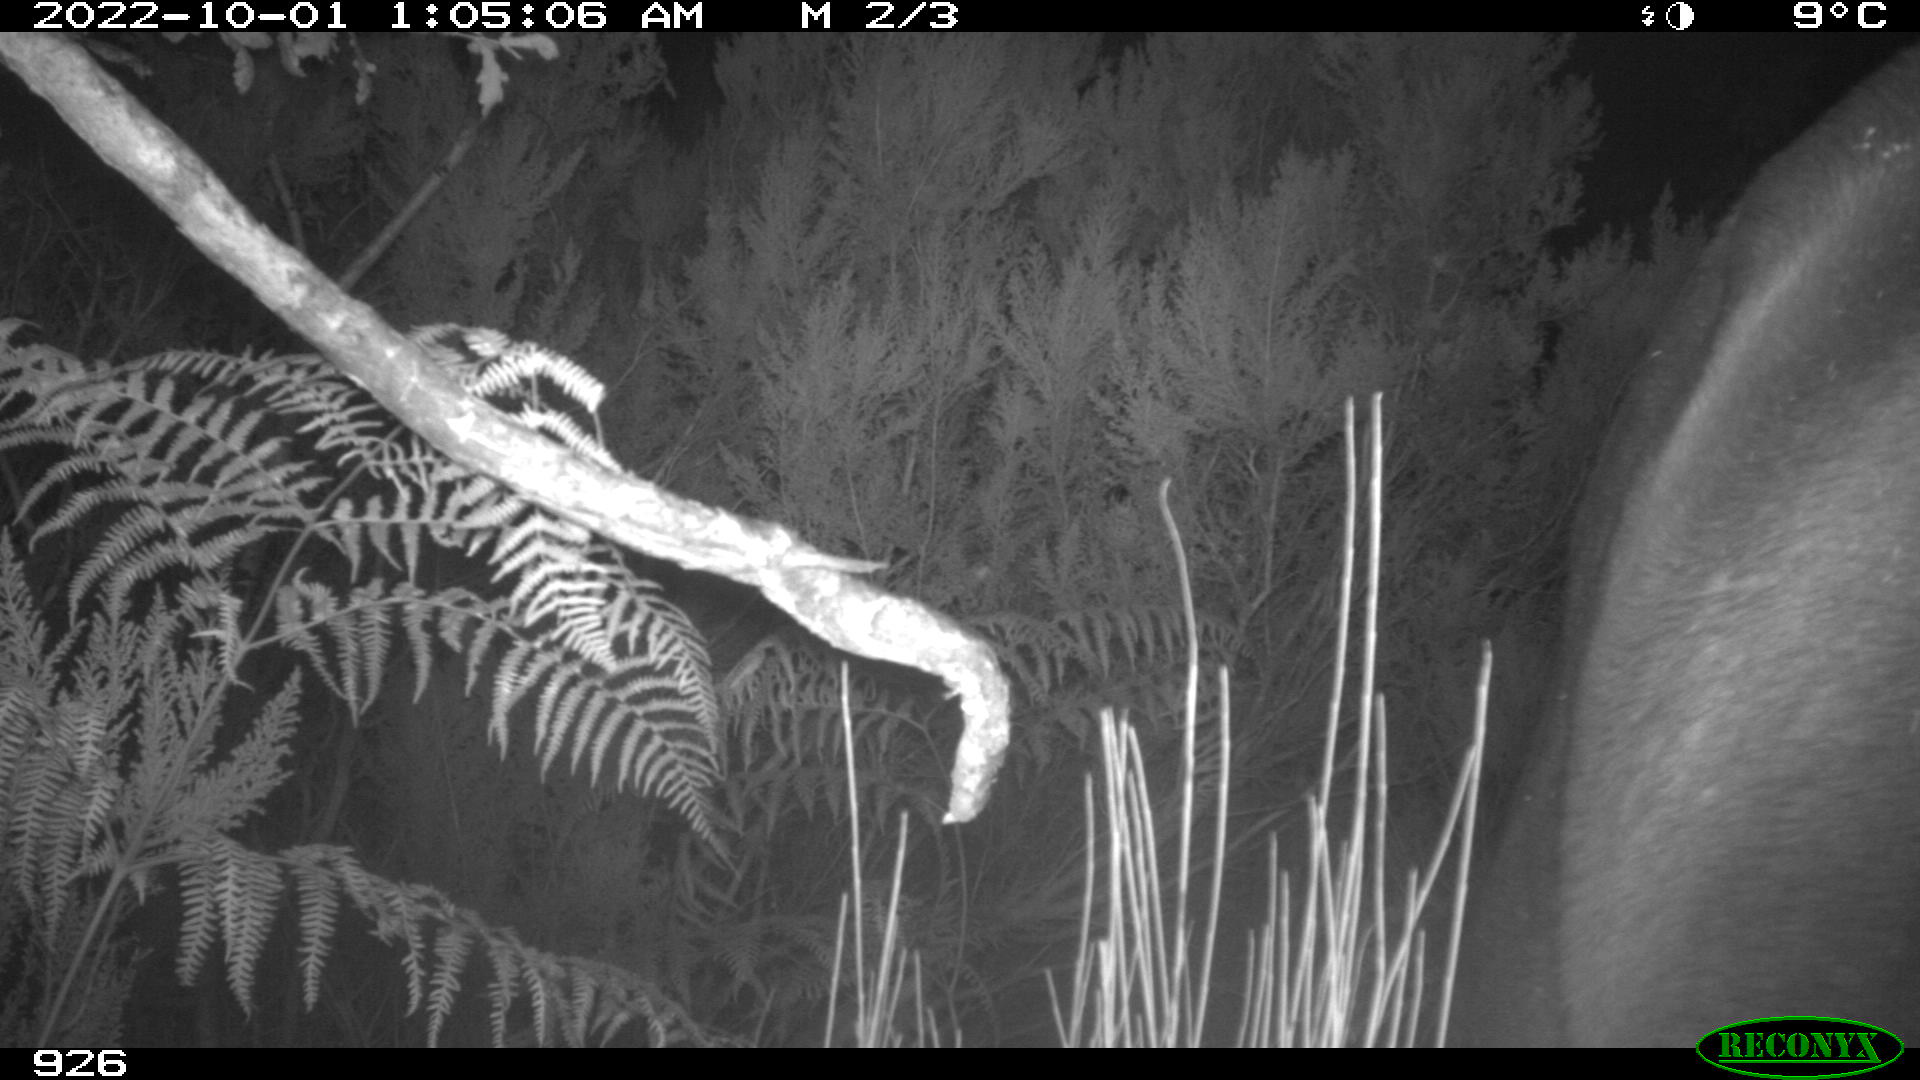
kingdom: Animalia
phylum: Chordata
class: Mammalia
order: Perissodactyla
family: Equidae
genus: Equus
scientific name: Equus caballus
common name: Horse
